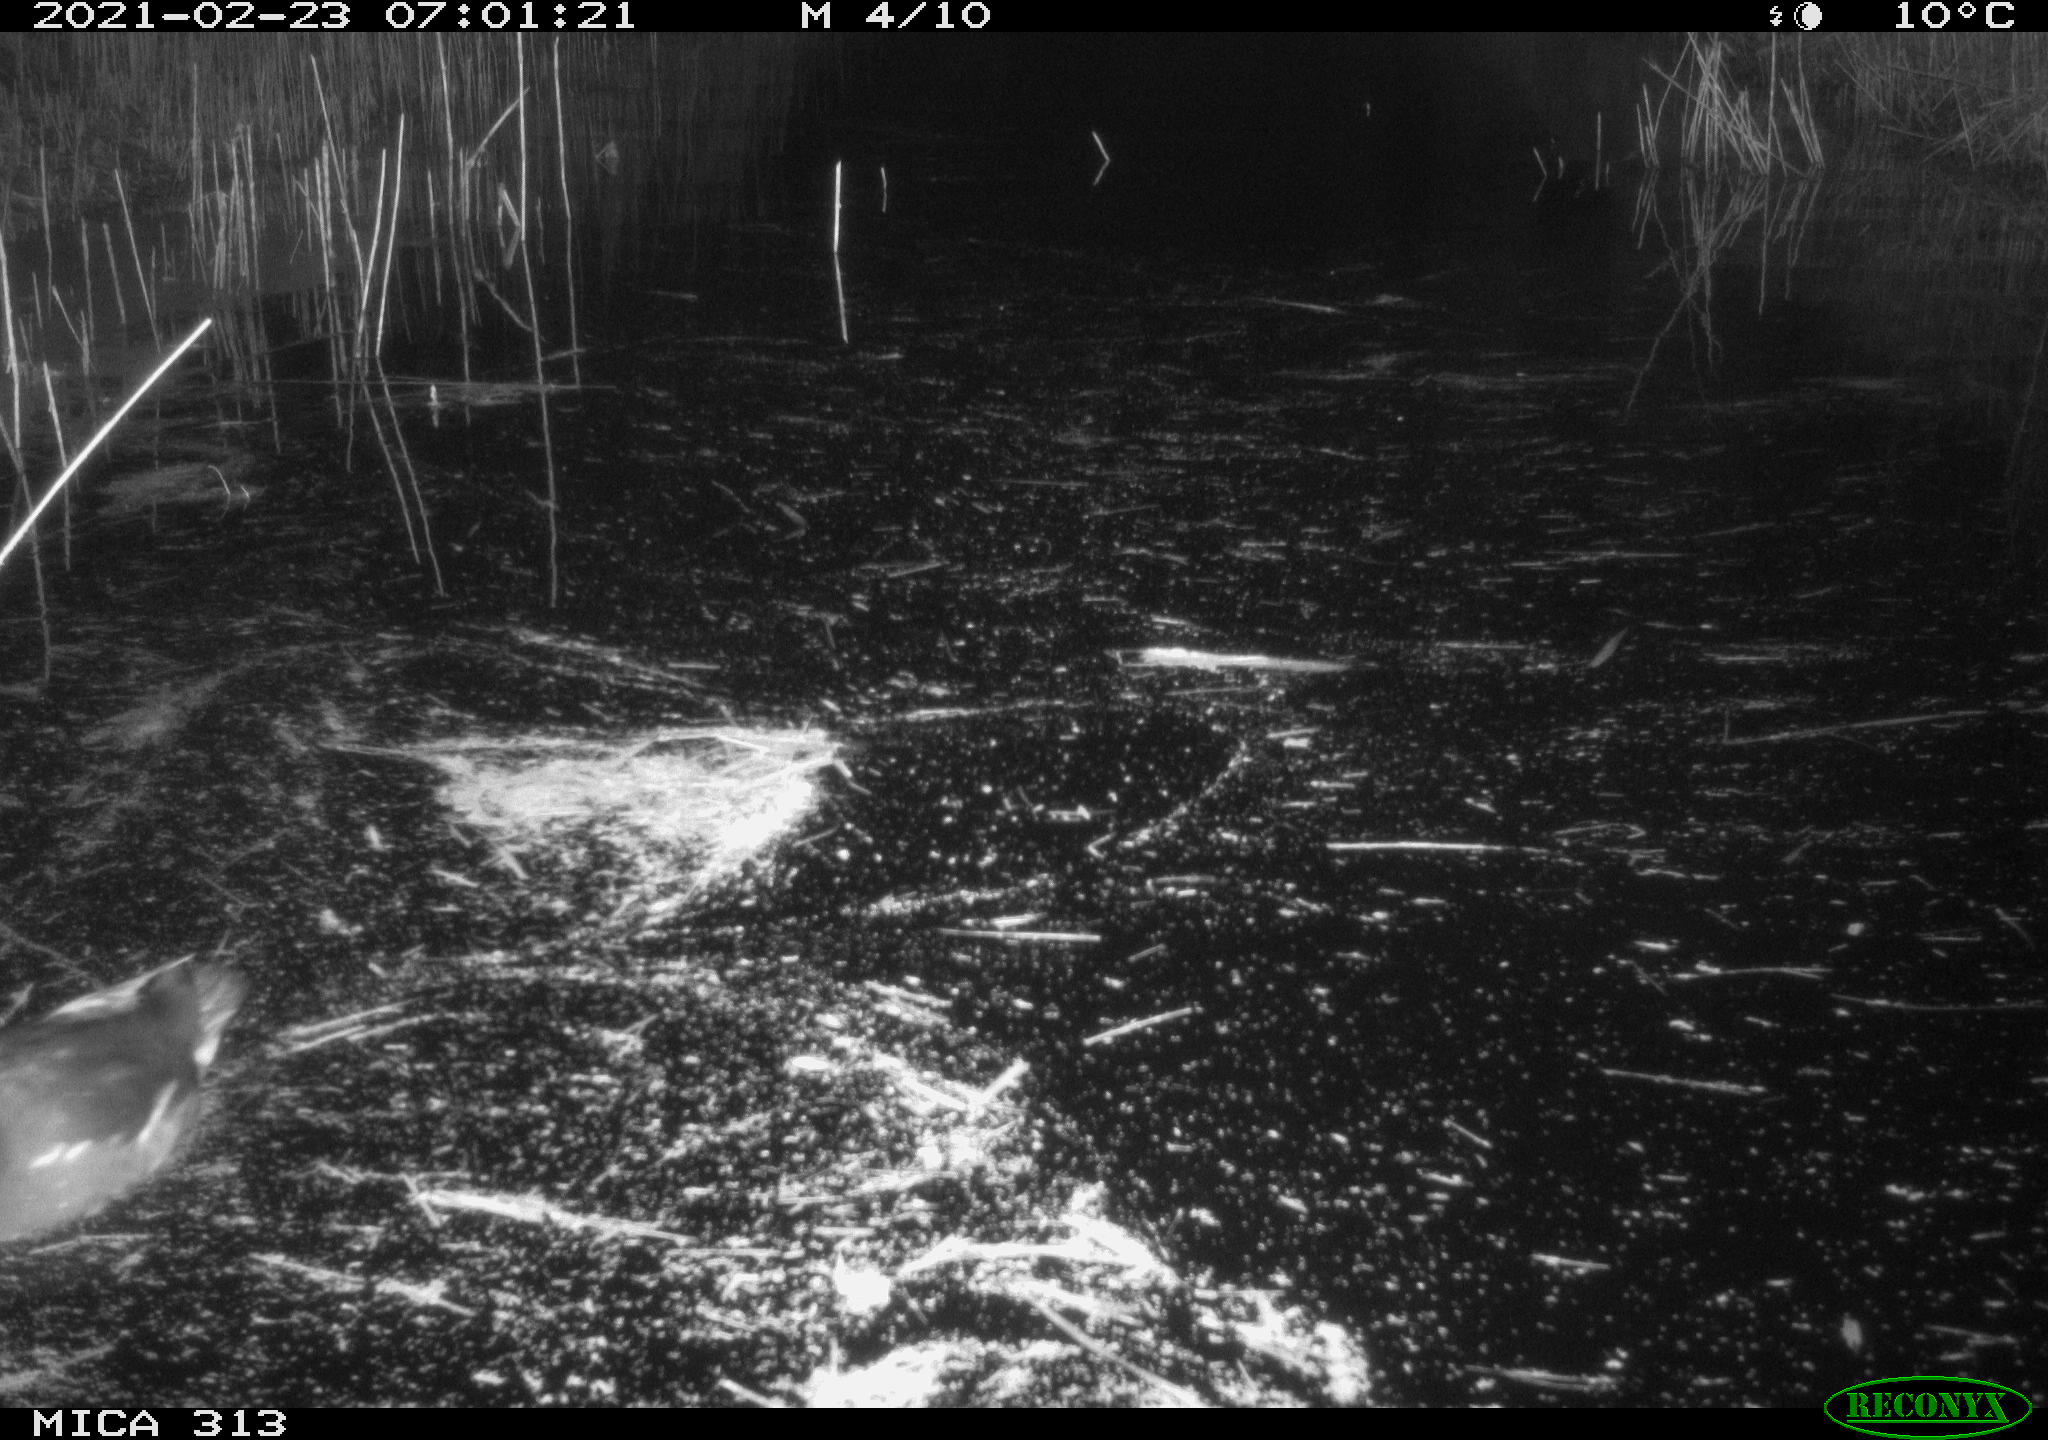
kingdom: Animalia
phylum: Chordata
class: Aves
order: Gruiformes
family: Rallidae
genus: Gallinula
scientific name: Gallinula chloropus
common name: Common moorhen
